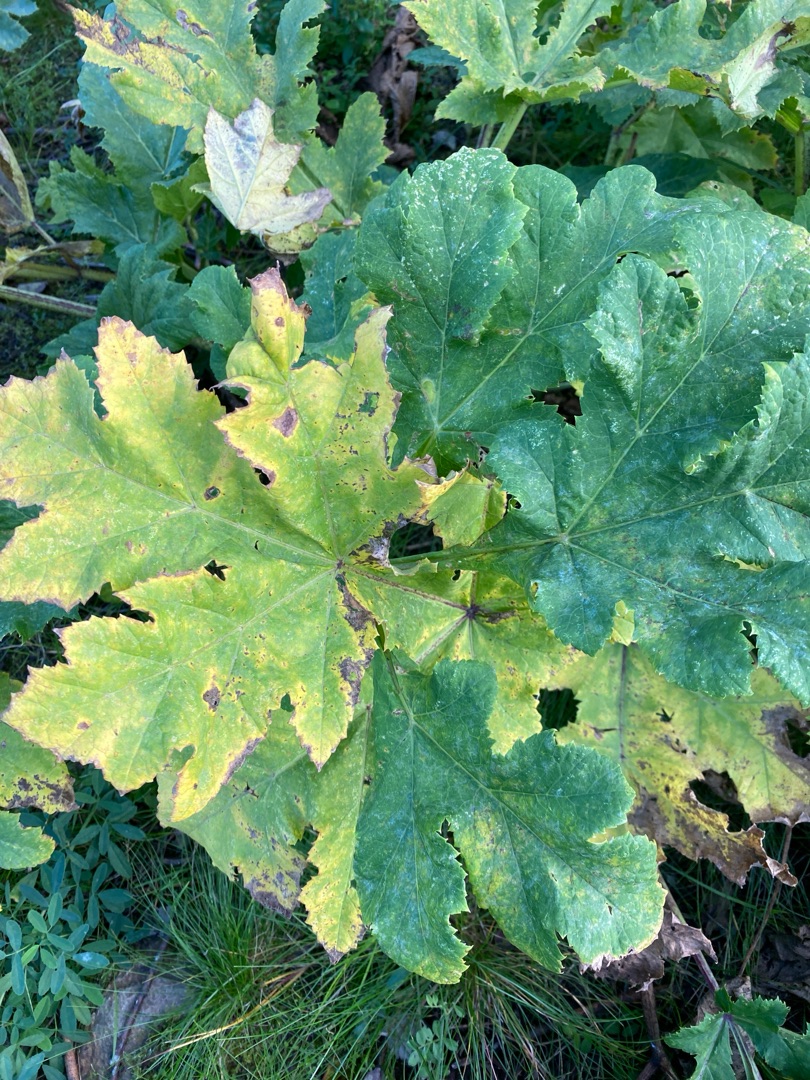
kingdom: Plantae
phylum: Tracheophyta
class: Magnoliopsida
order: Apiales
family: Apiaceae
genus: Heracleum
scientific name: Heracleum mantegazzianum
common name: Kæmpe-bjørneklo
